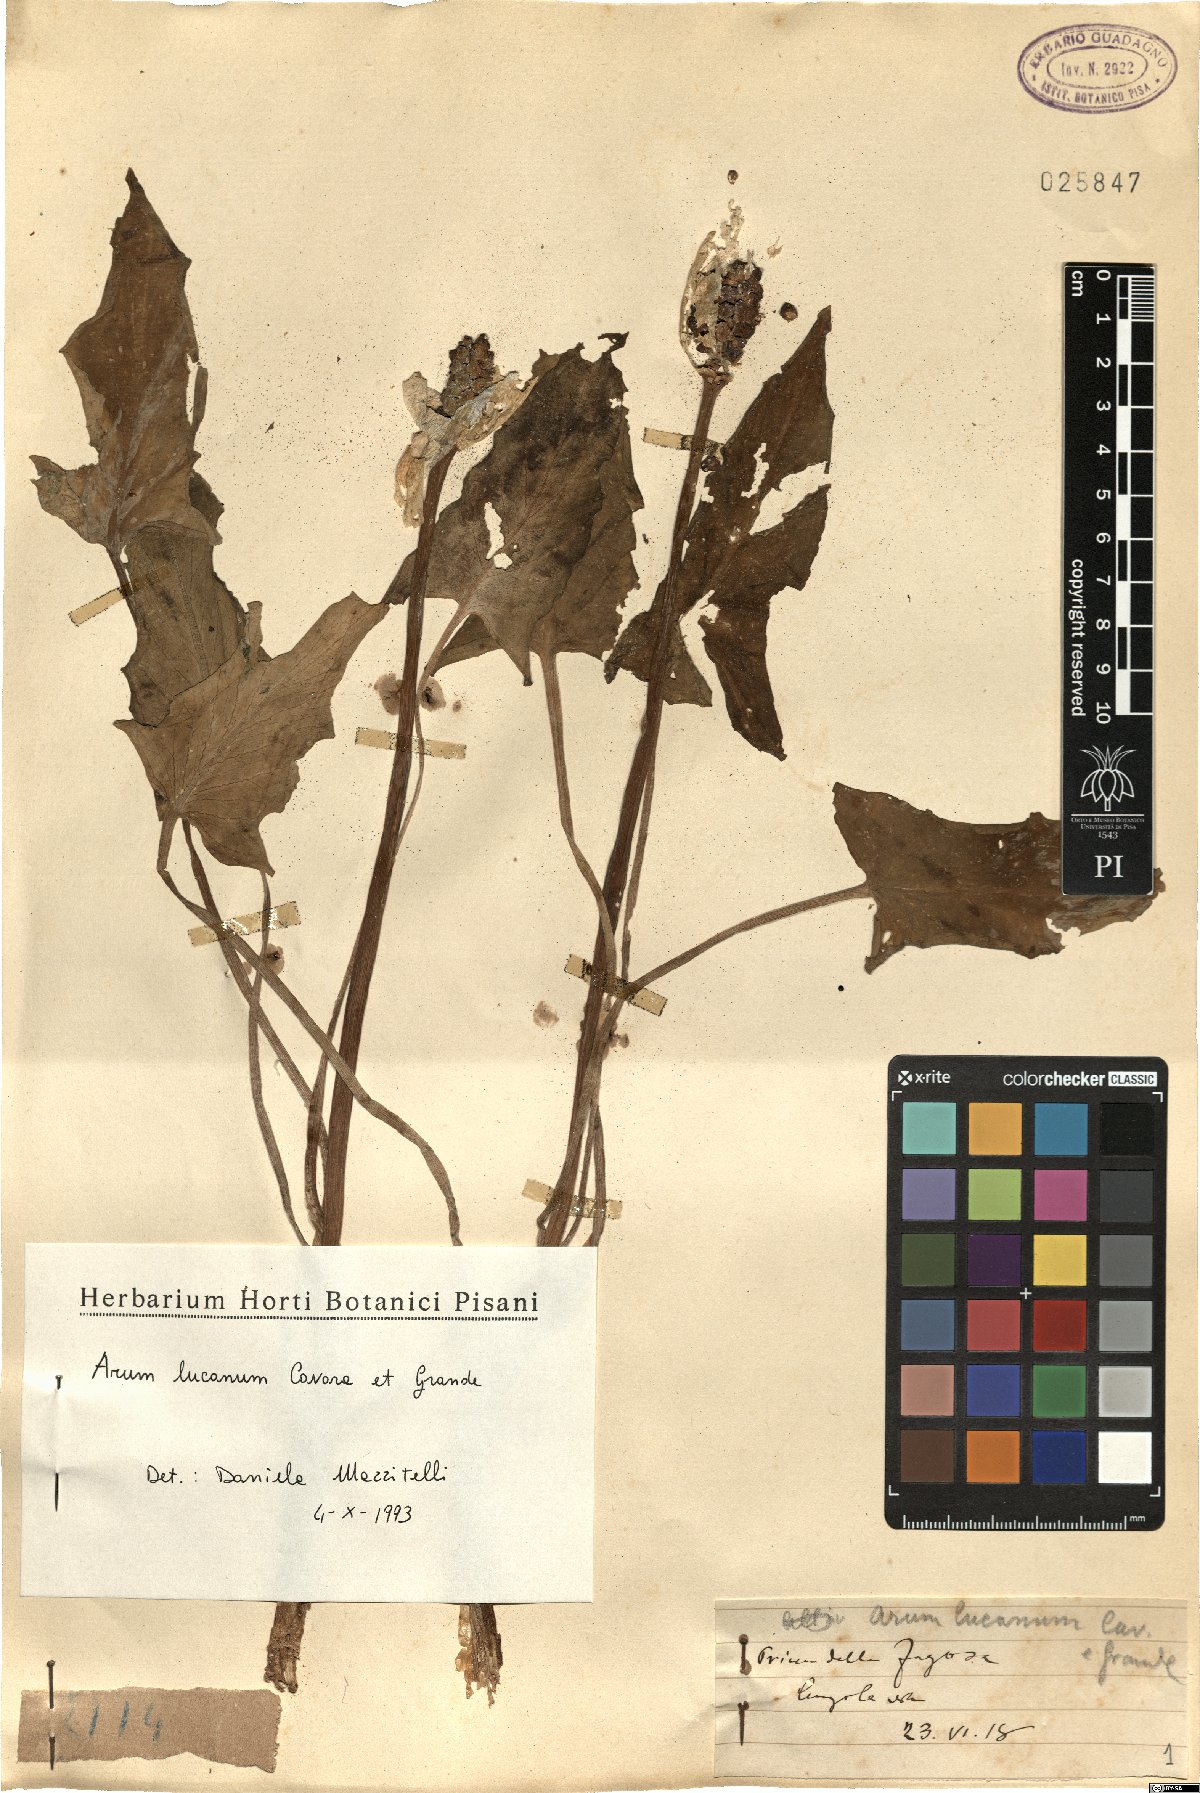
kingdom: Plantae
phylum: Tracheophyta
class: Liliopsida
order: Alismatales
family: Araceae
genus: Arum
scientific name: Arum lucanum
